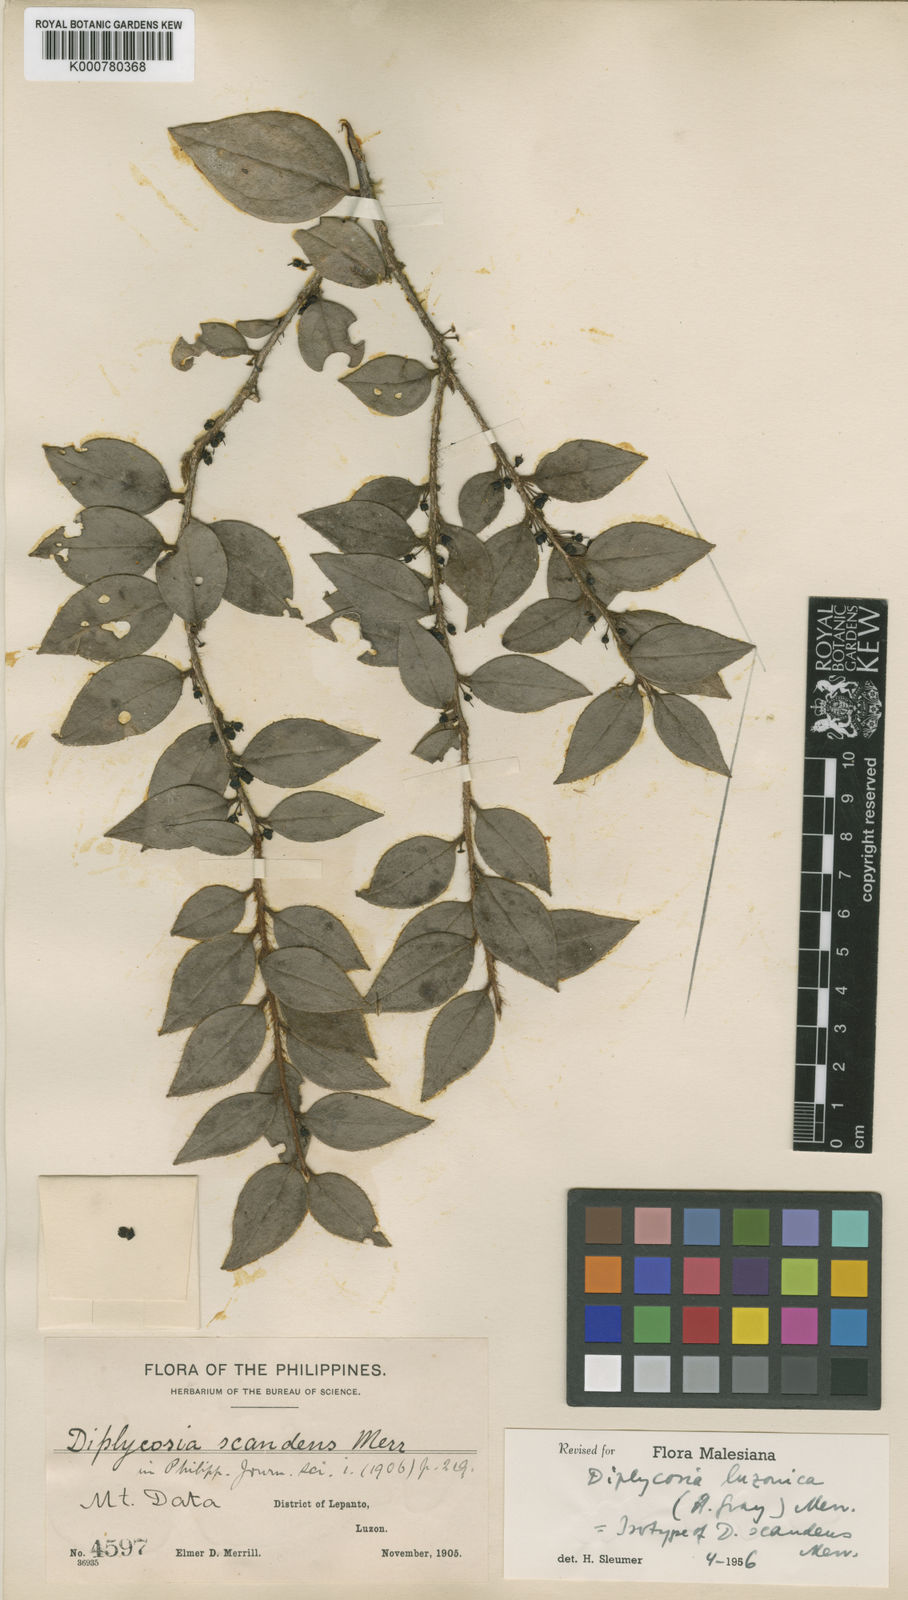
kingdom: Plantae
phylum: Tracheophyta
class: Magnoliopsida
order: Ericales
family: Ericaceae
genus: Gaultheria
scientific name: Gaultheria luzonica
